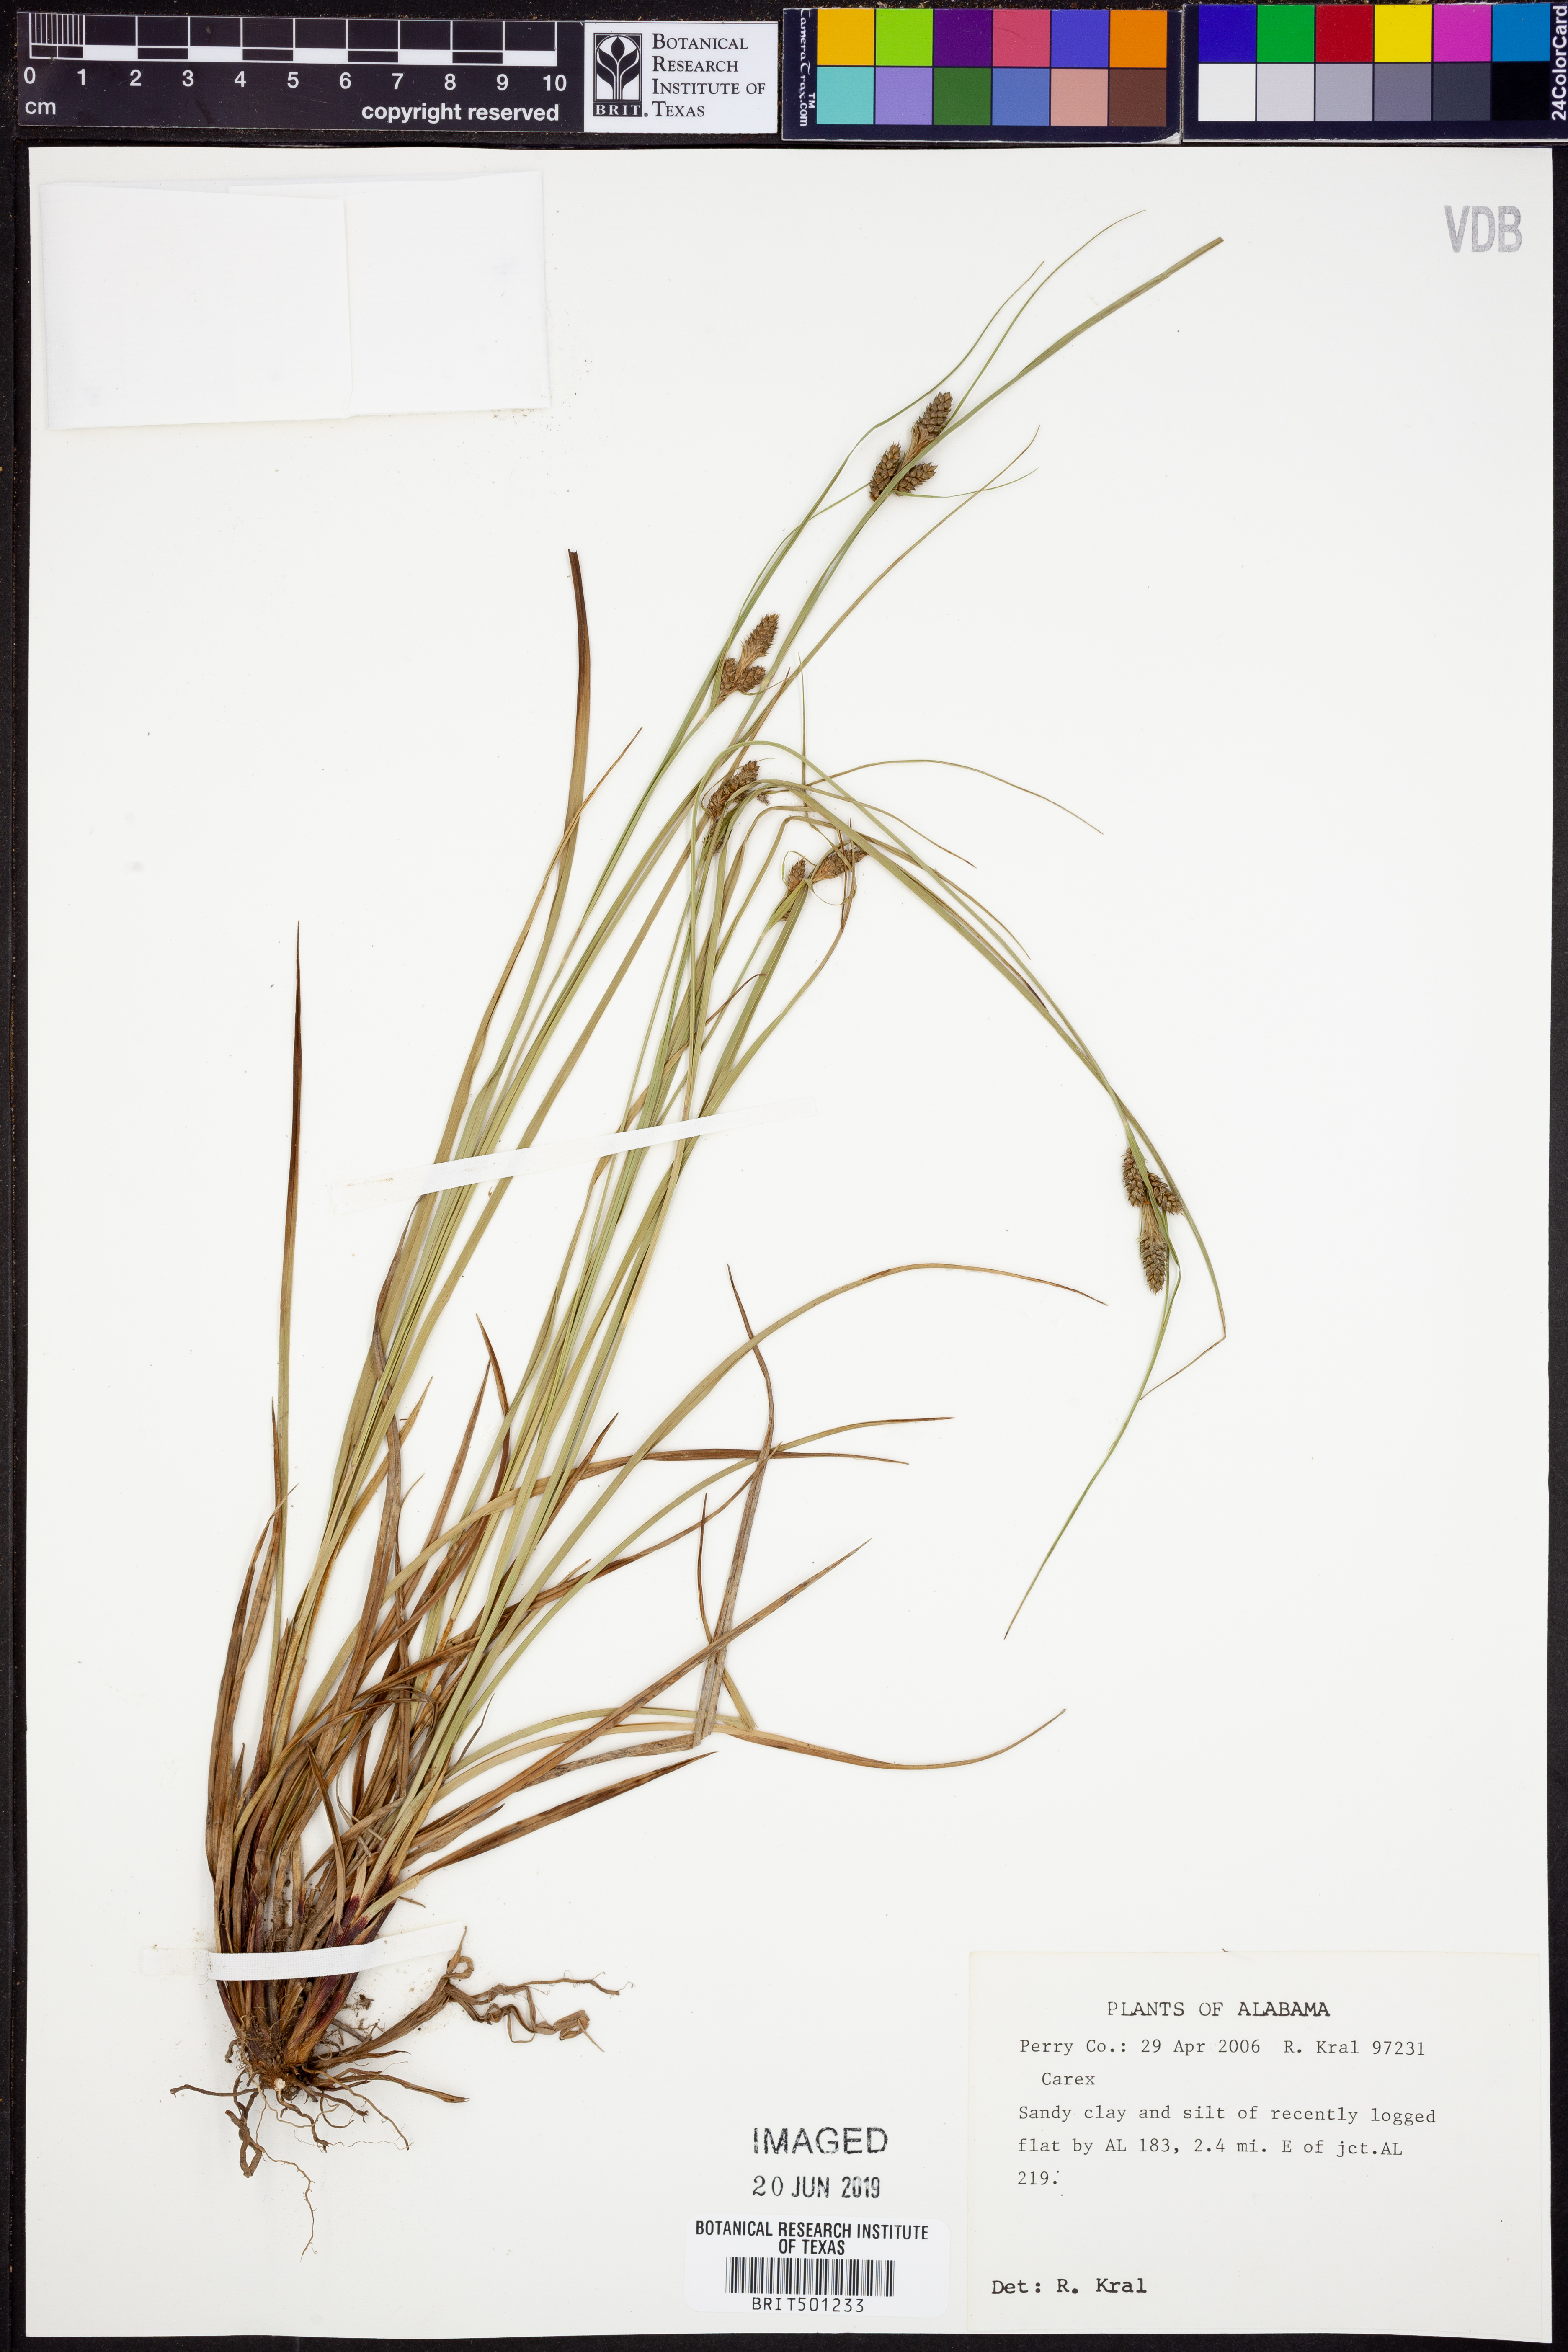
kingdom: Plantae
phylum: Tracheophyta
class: Liliopsida
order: Poales
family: Cyperaceae
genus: Carex
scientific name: Carex
